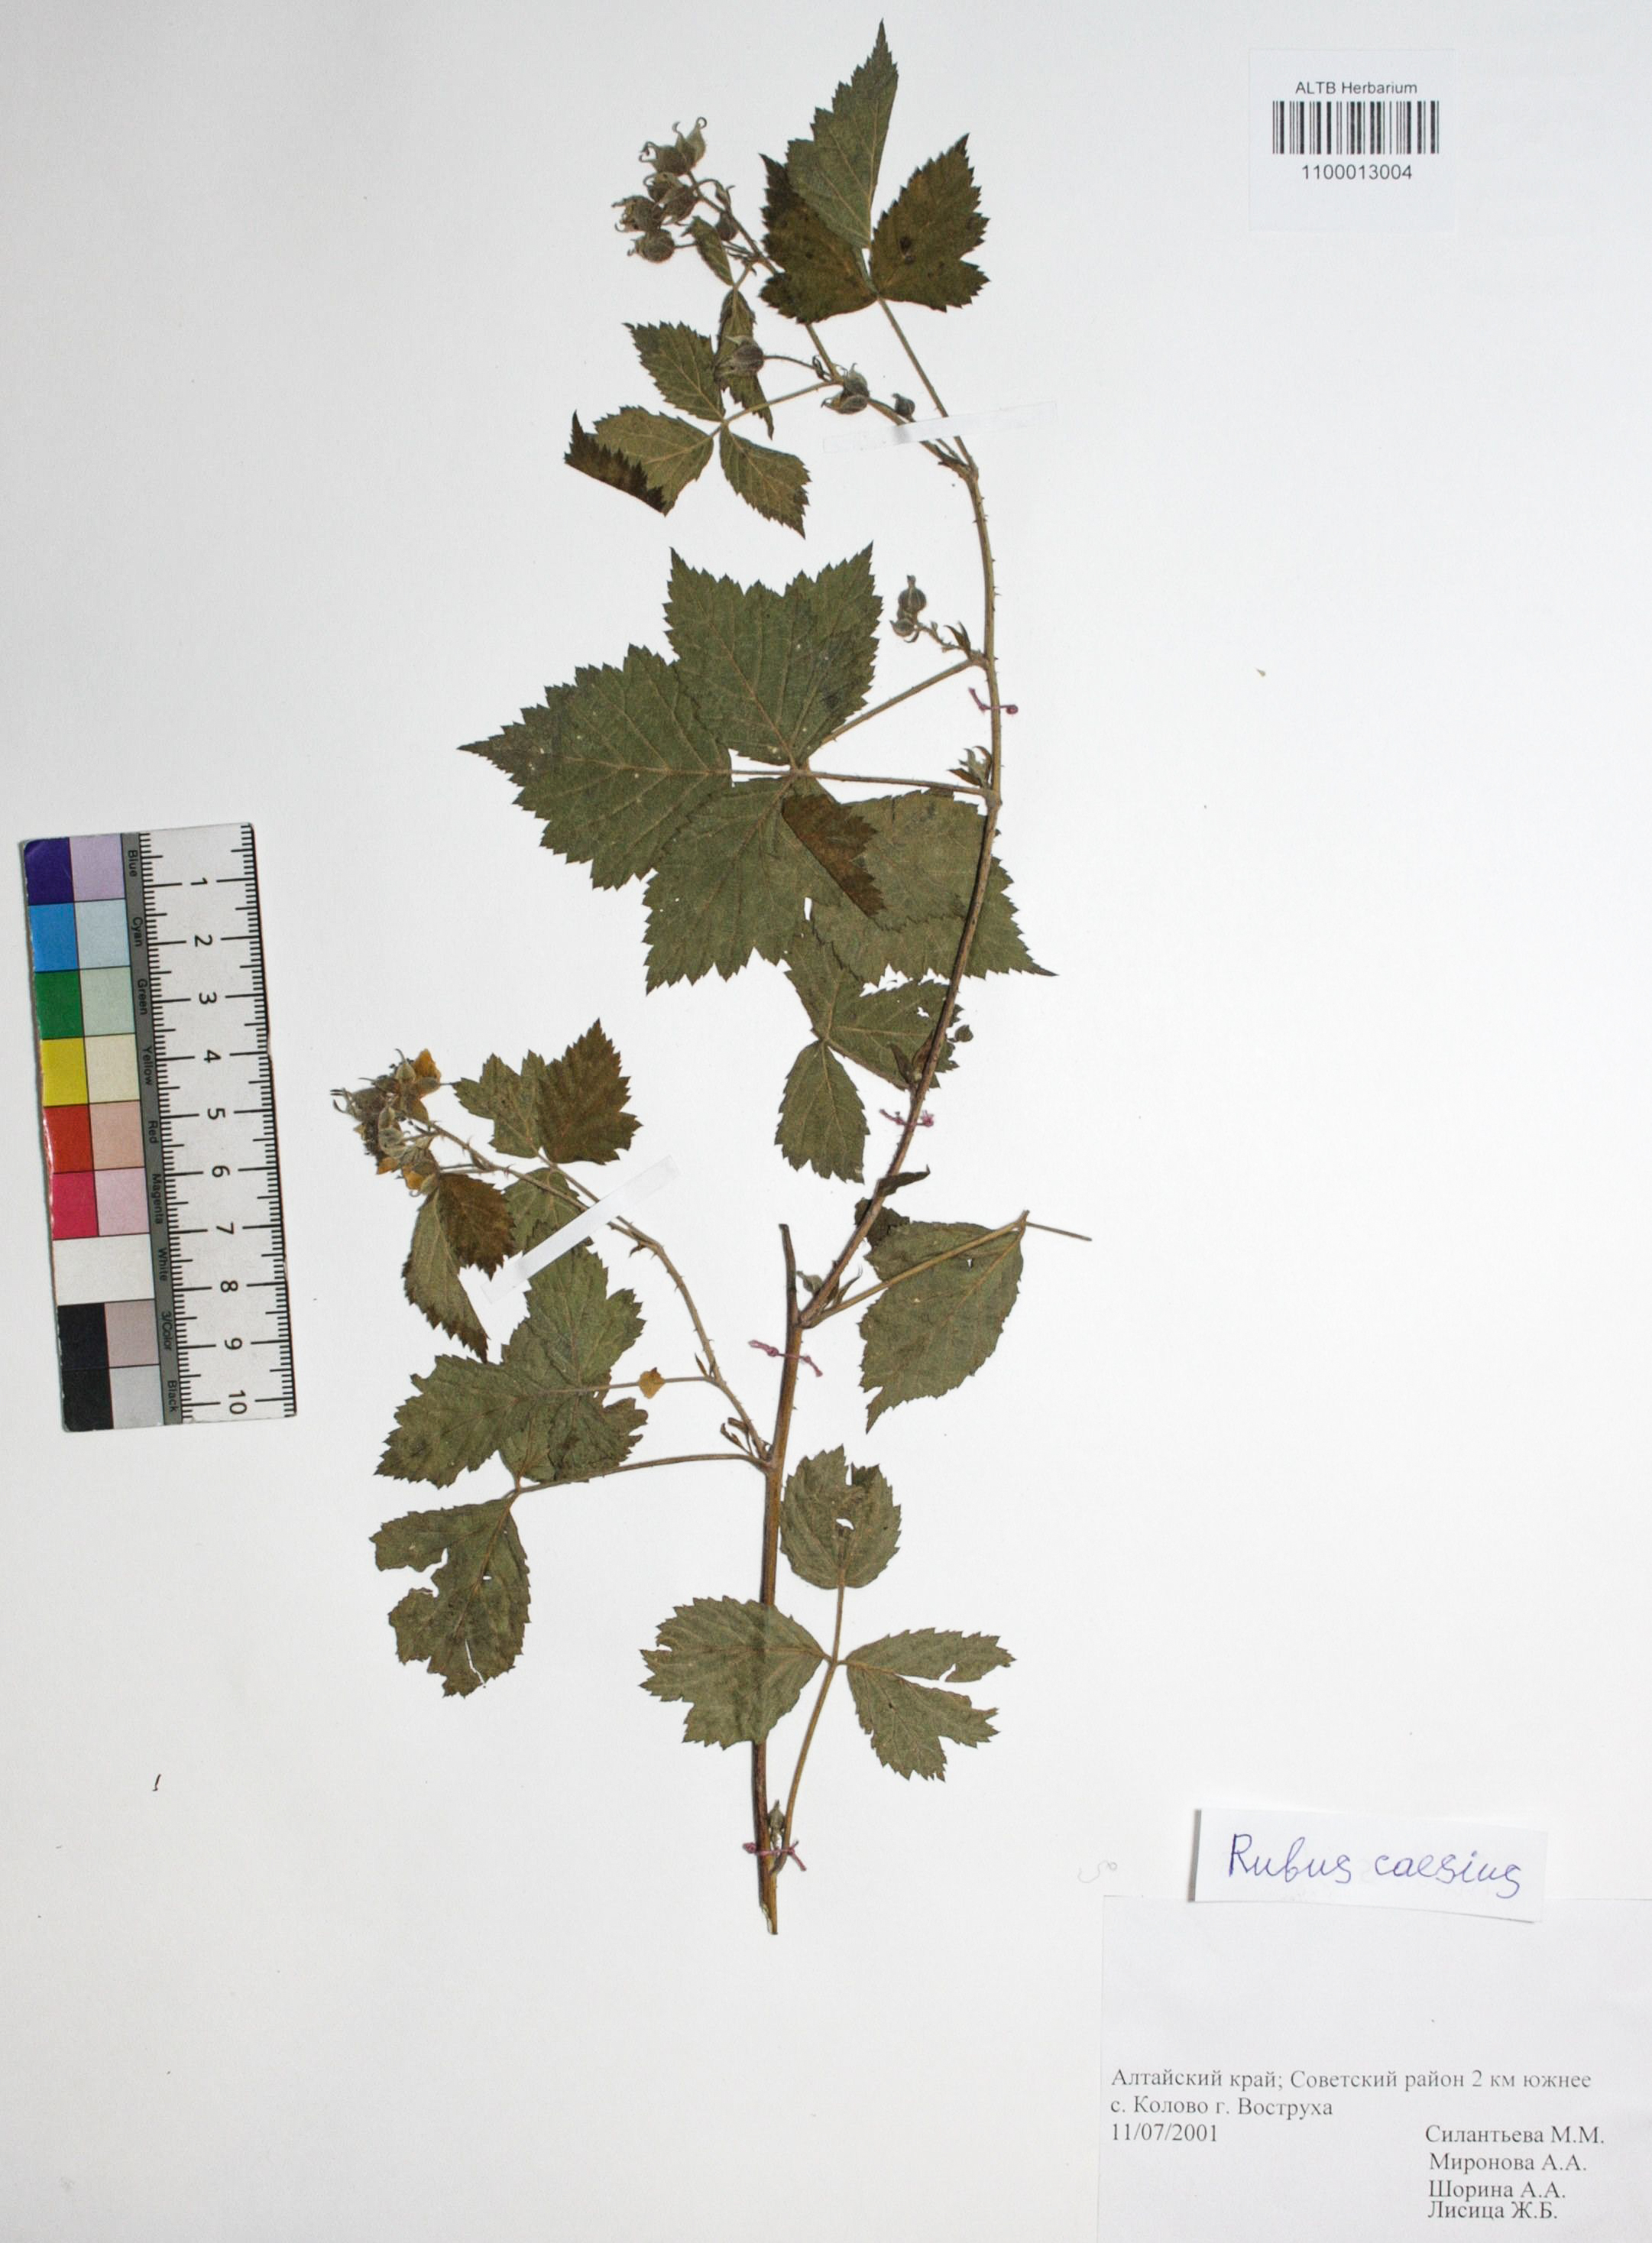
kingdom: Plantae
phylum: Tracheophyta
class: Magnoliopsida
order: Rosales
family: Rosaceae
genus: Rubus
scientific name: Rubus caesius
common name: Dewberry
